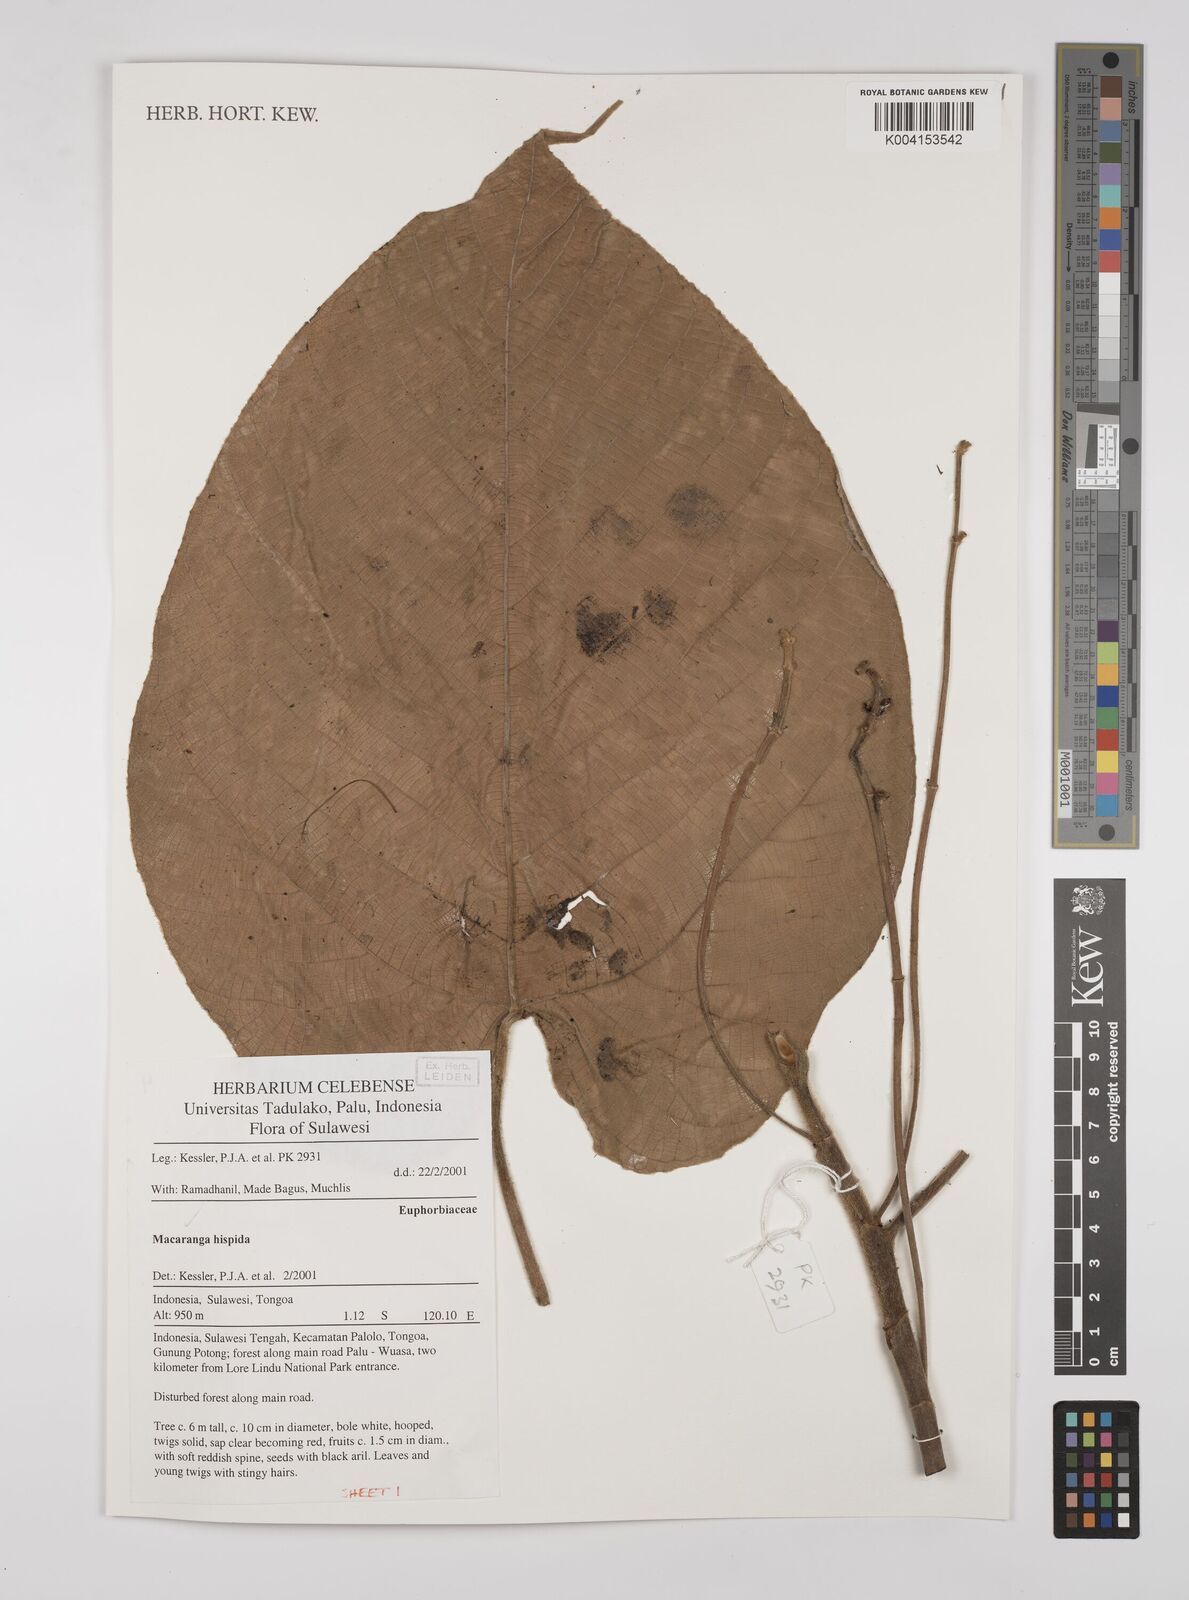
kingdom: Plantae
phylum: Tracheophyta
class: Magnoliopsida
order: Malpighiales
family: Euphorbiaceae
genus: Macaranga
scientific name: Macaranga hispida
